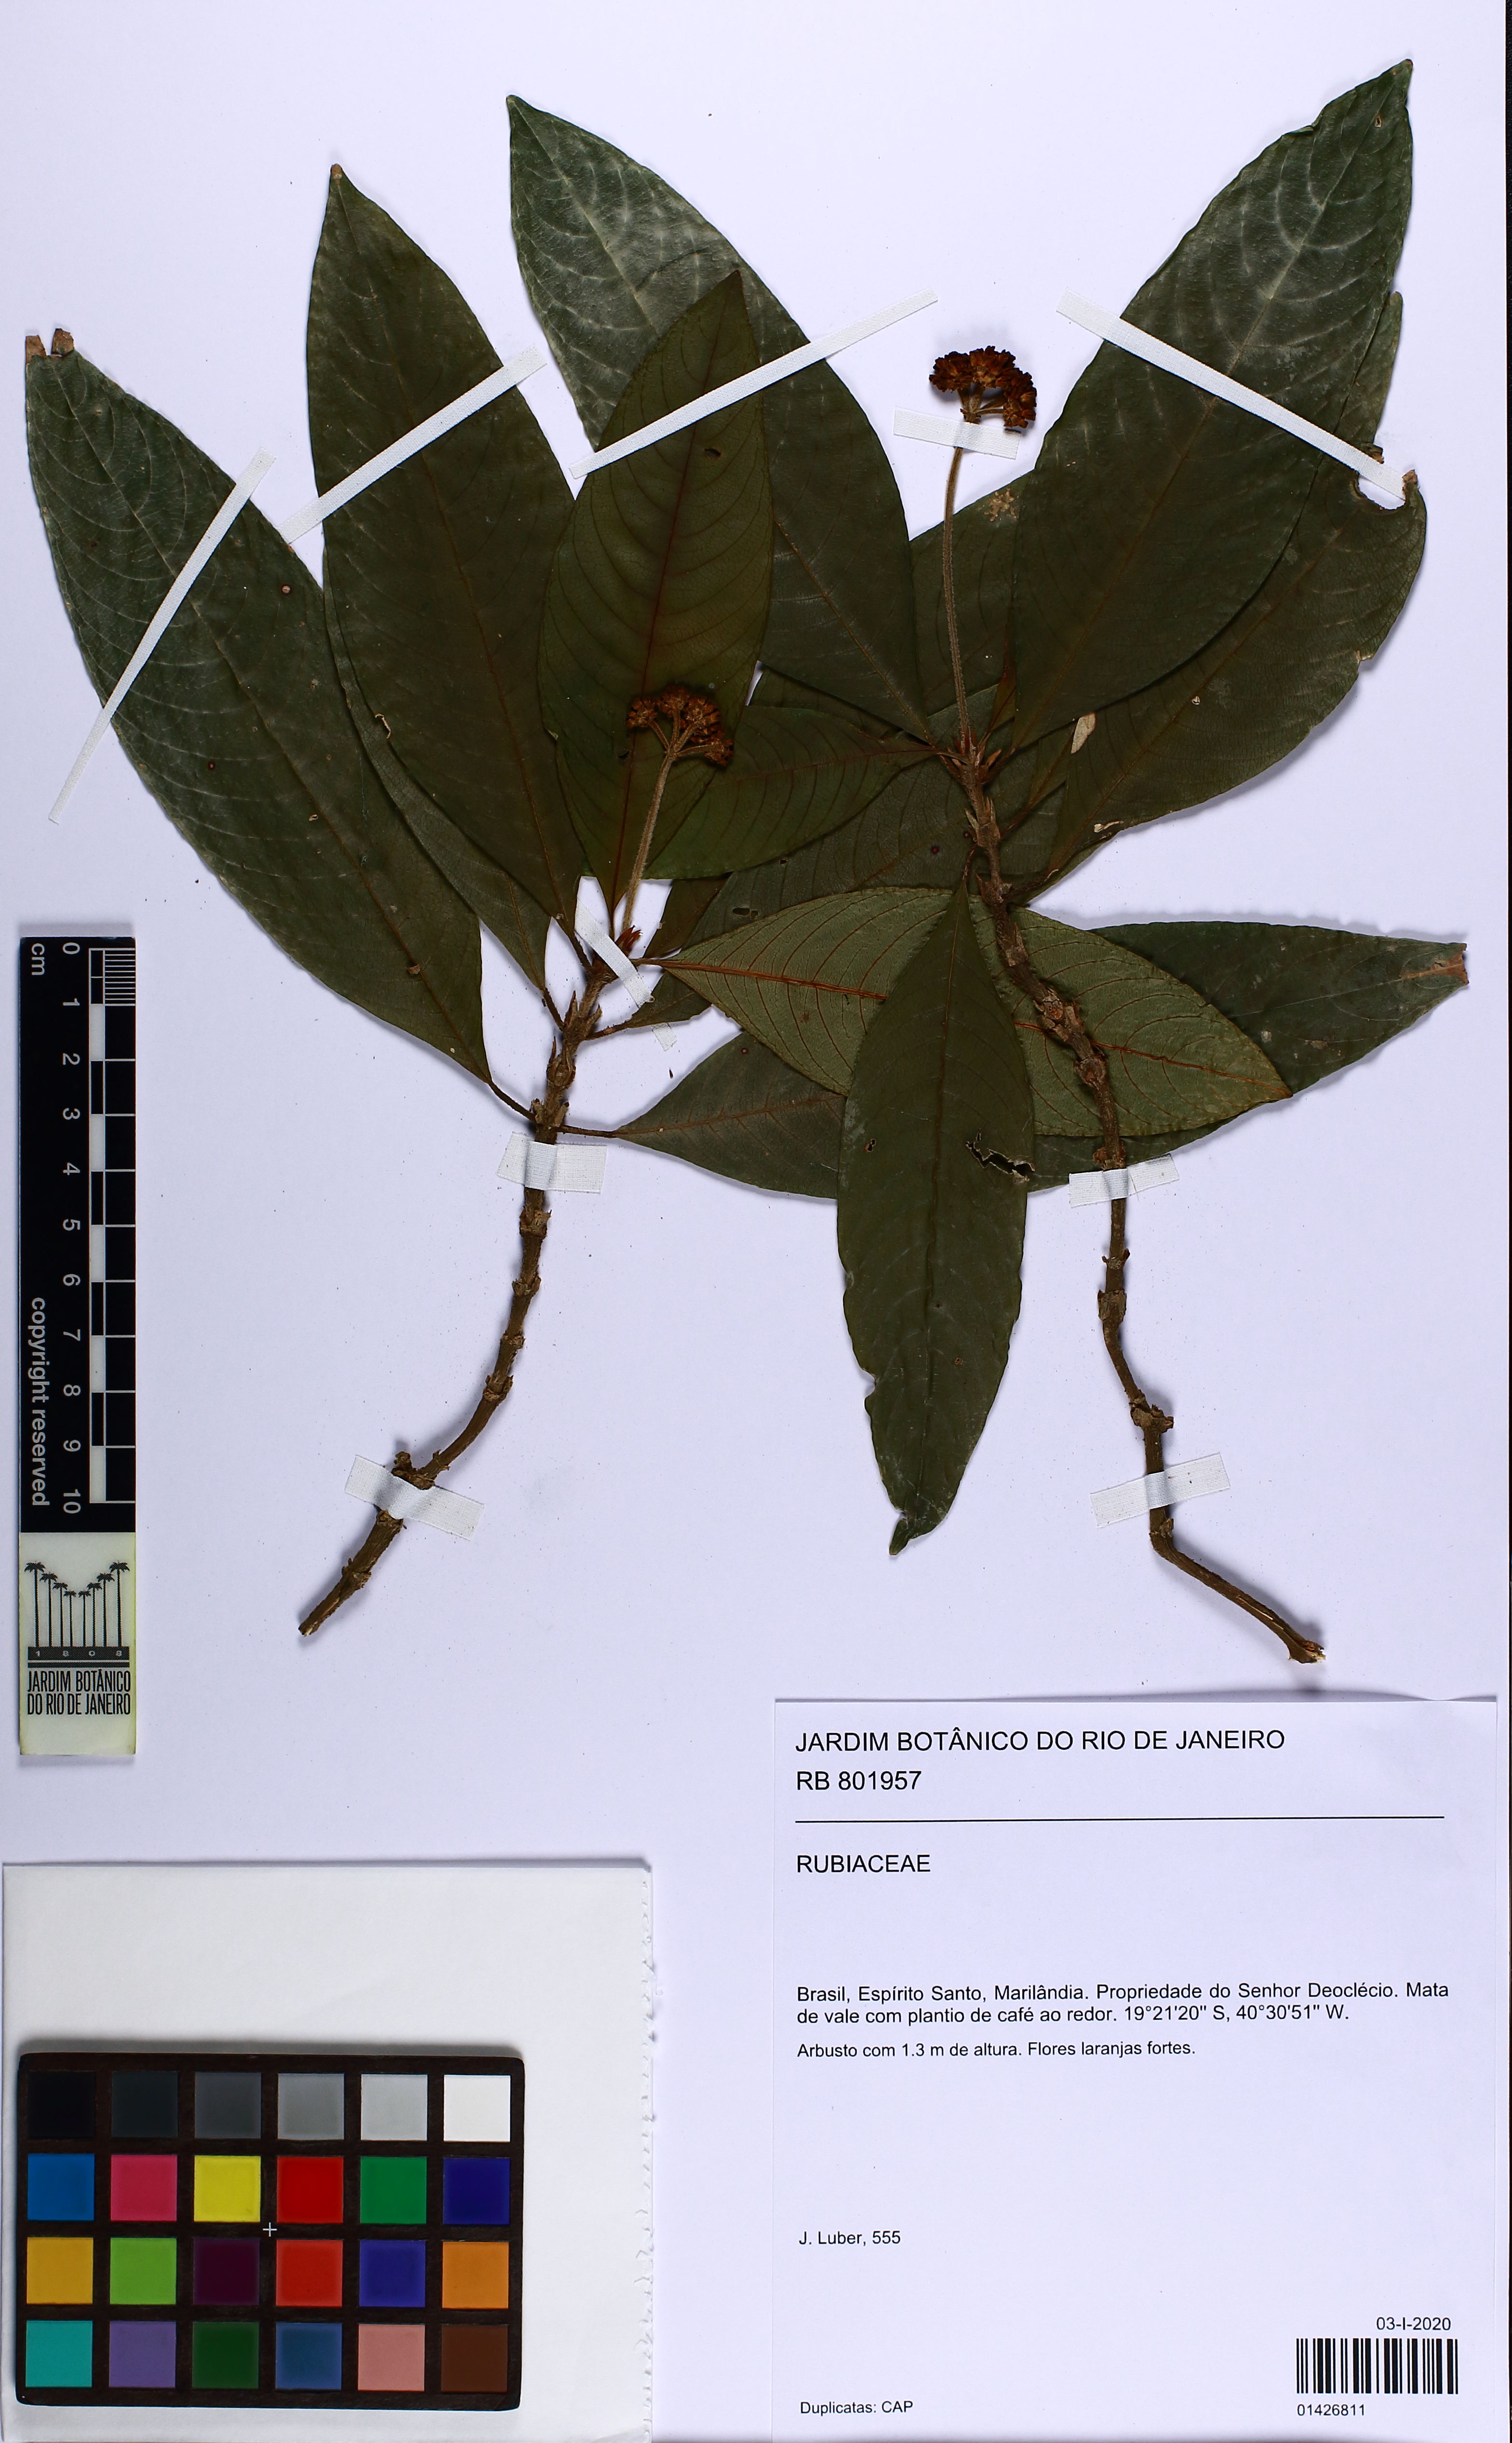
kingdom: Plantae
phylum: Tracheophyta
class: Magnoliopsida
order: Gentianales
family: Rubiaceae
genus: Palicourea
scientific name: Palicourea
